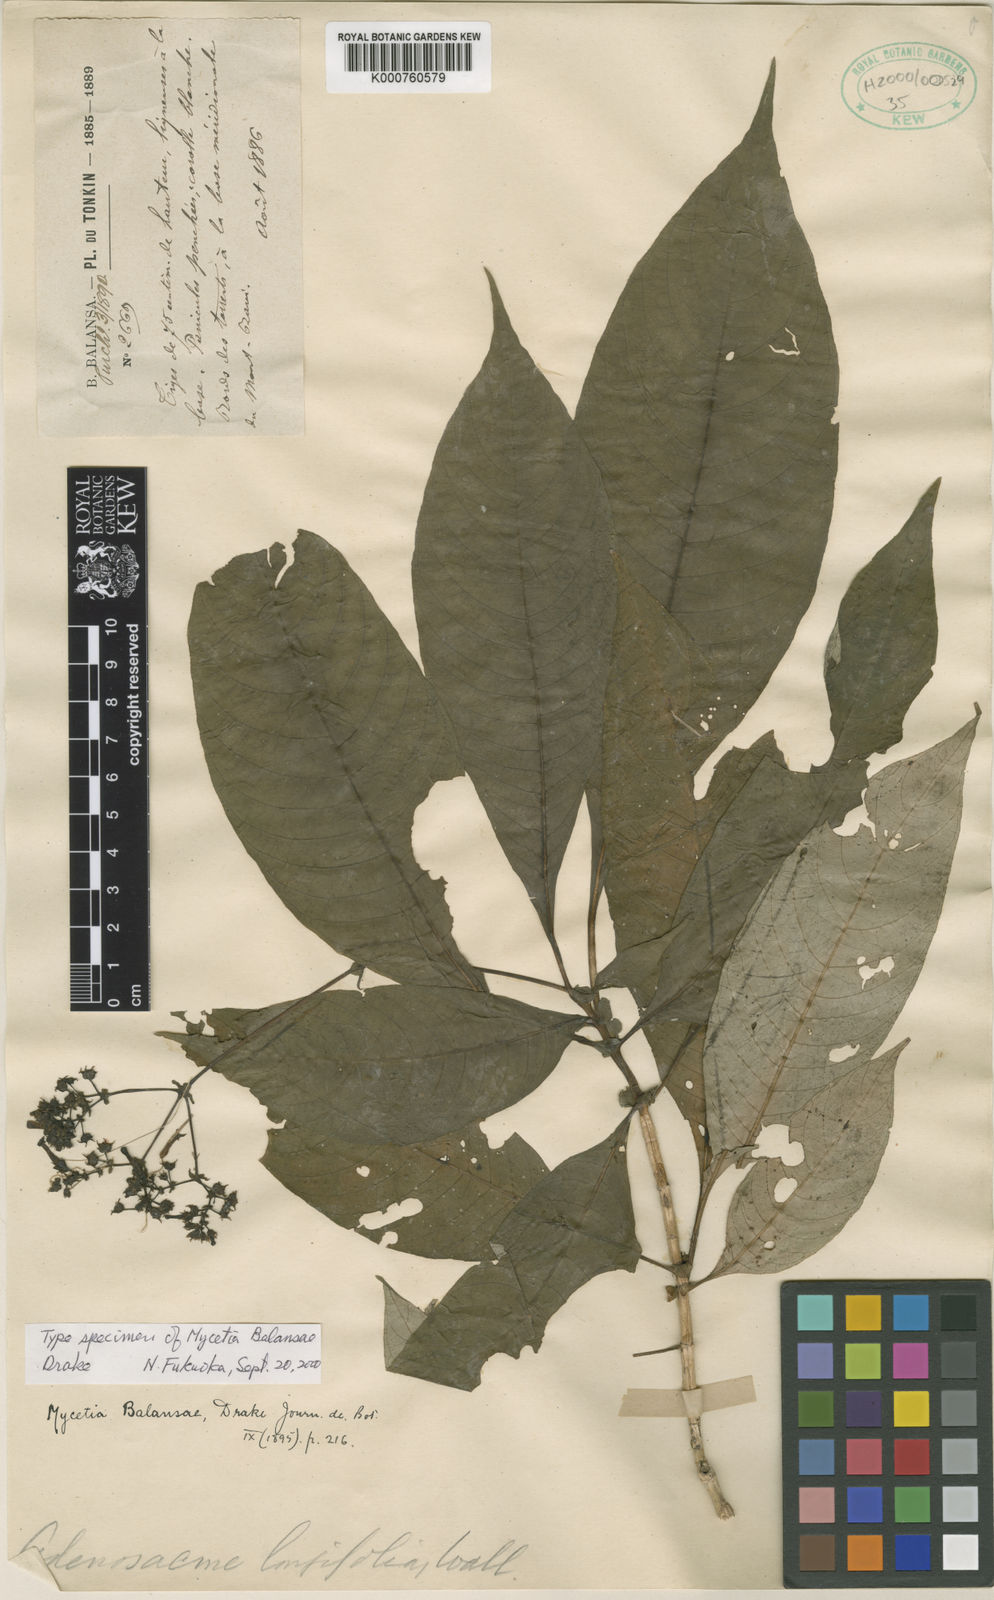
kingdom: Plantae
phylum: Tracheophyta
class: Magnoliopsida
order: Gentianales
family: Rubiaceae
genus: Mycetia
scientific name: Mycetia balansae
